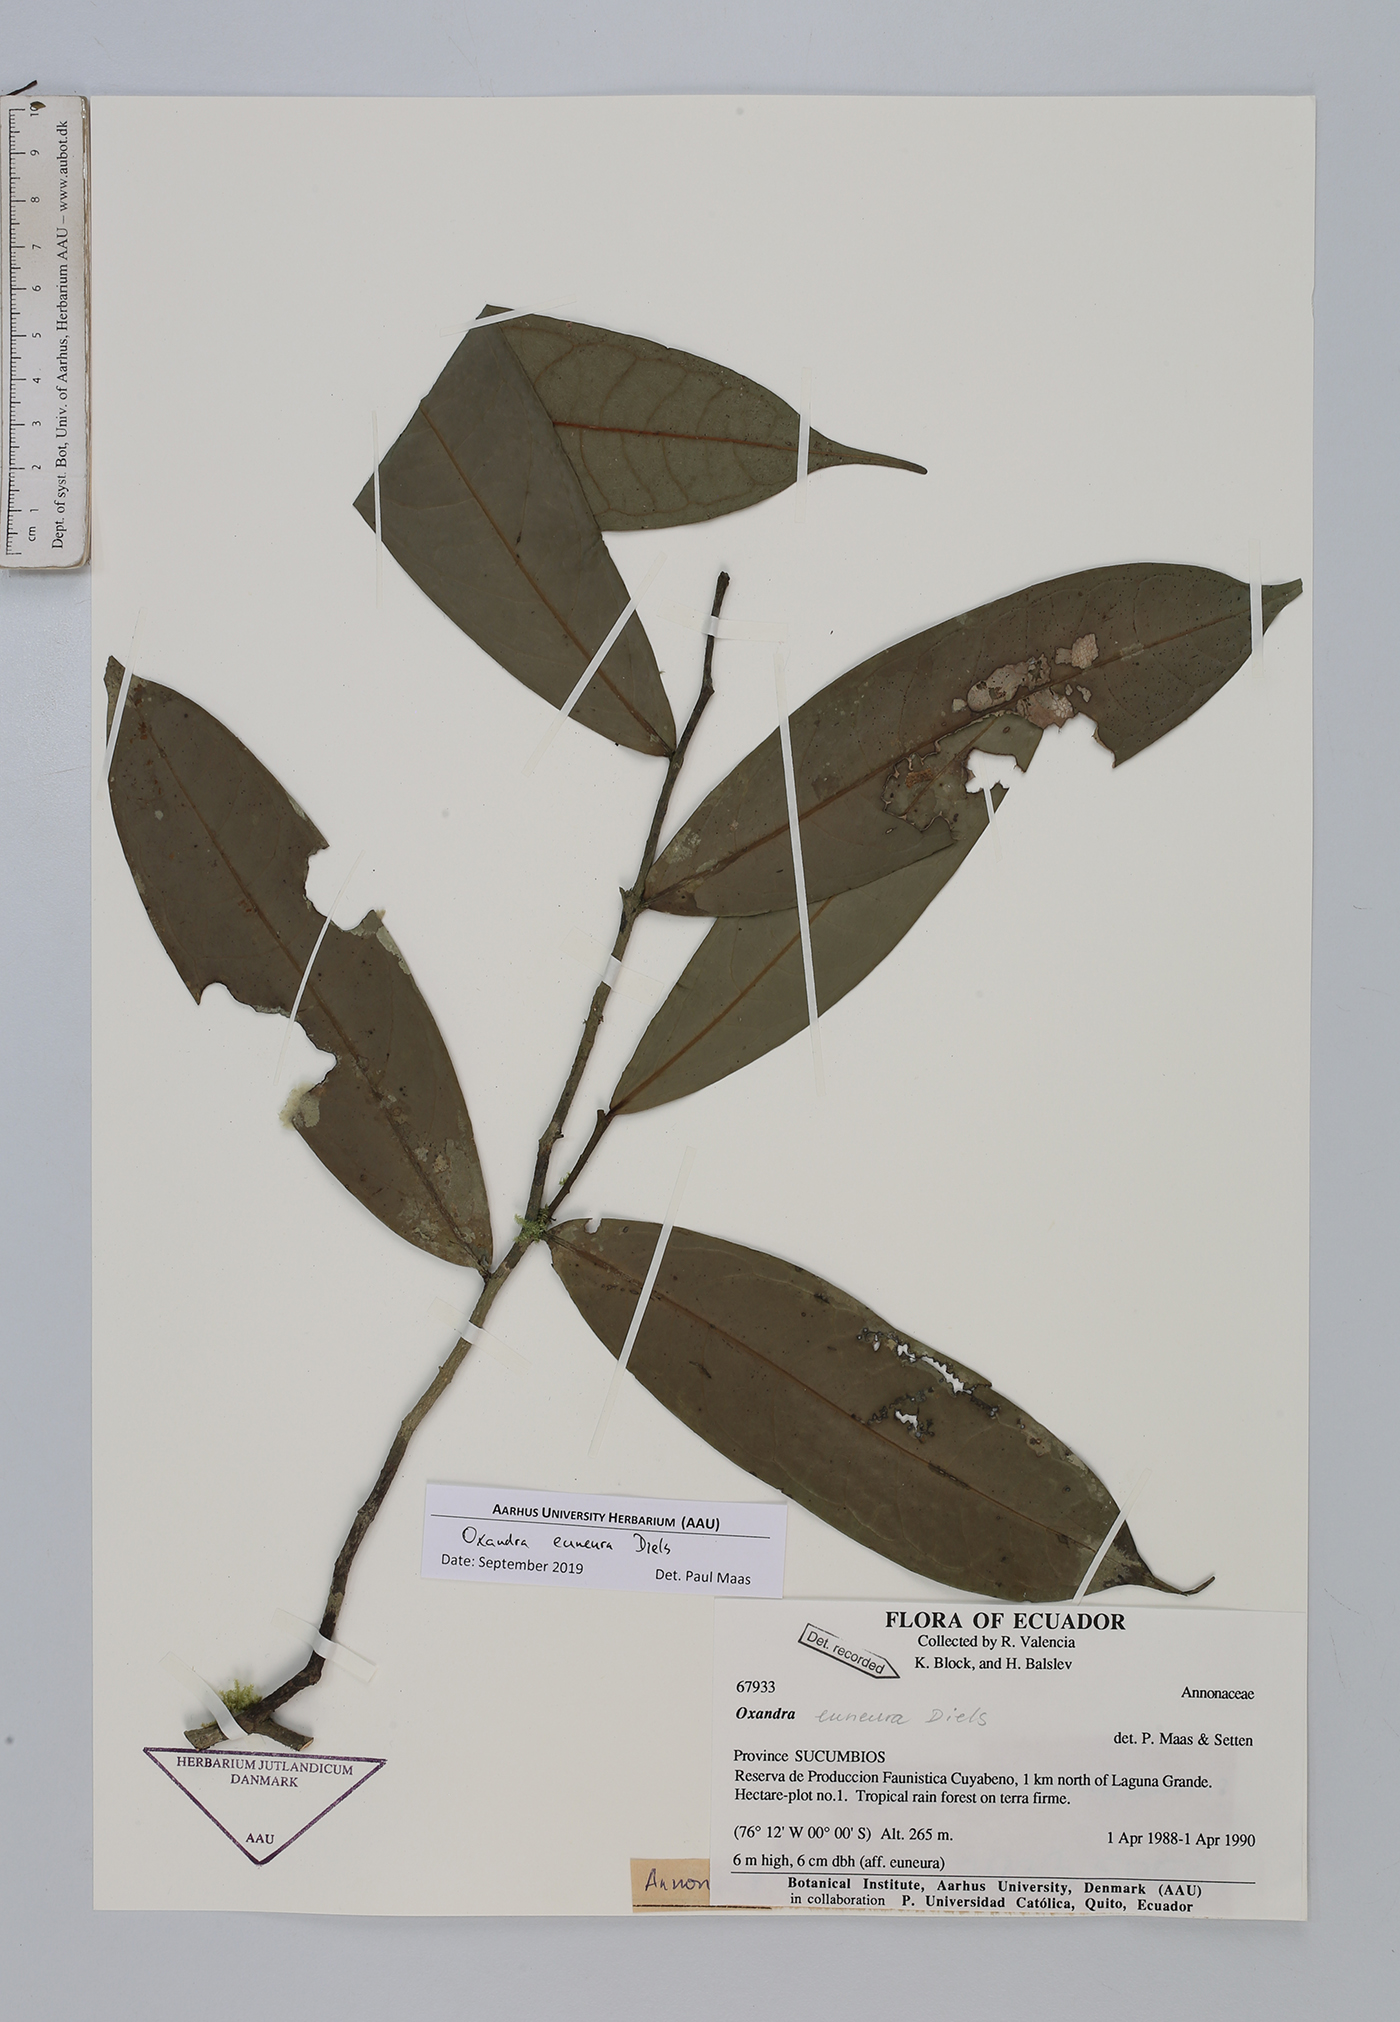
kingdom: Plantae
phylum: Tracheophyta
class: Magnoliopsida
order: Magnoliales
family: Annonaceae
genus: Oxandra
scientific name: Oxandra euneura
